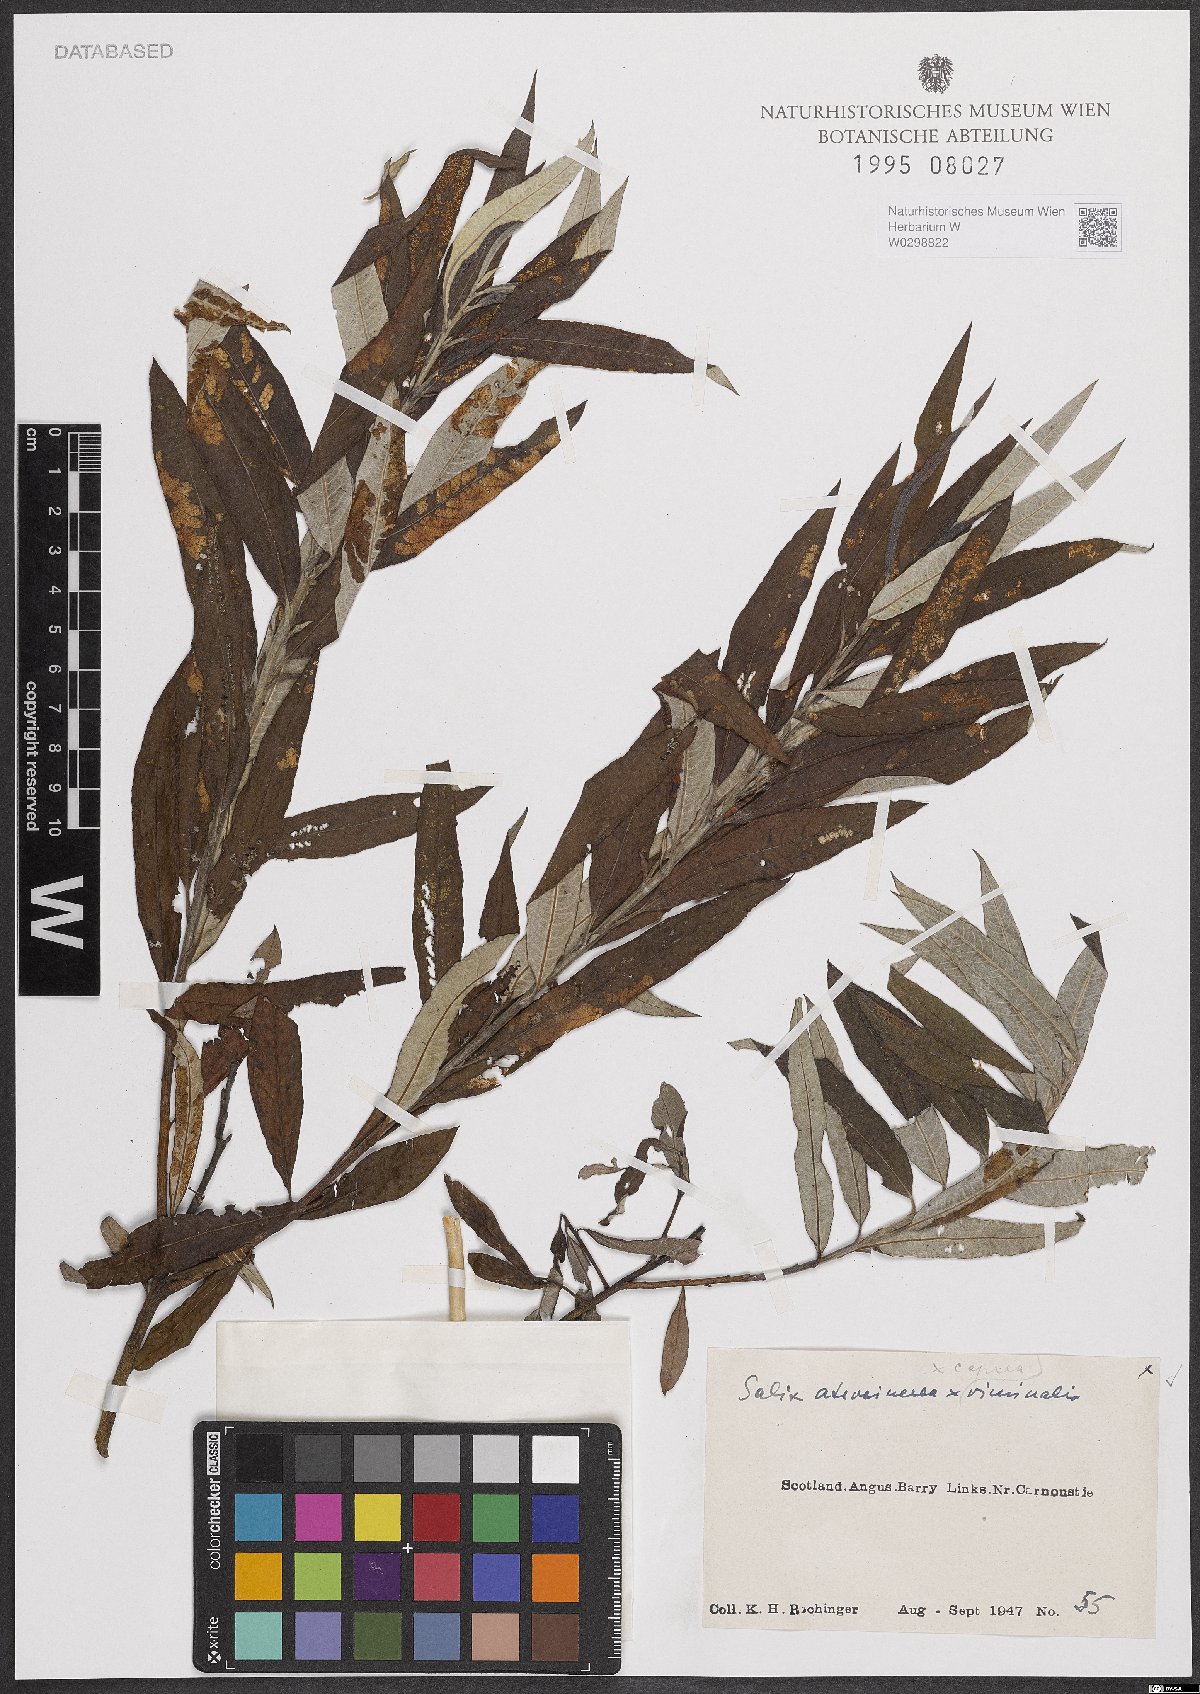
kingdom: Plantae
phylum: Tracheophyta
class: Magnoliopsida
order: Malpighiales
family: Salicaceae
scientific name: Salicaceae
